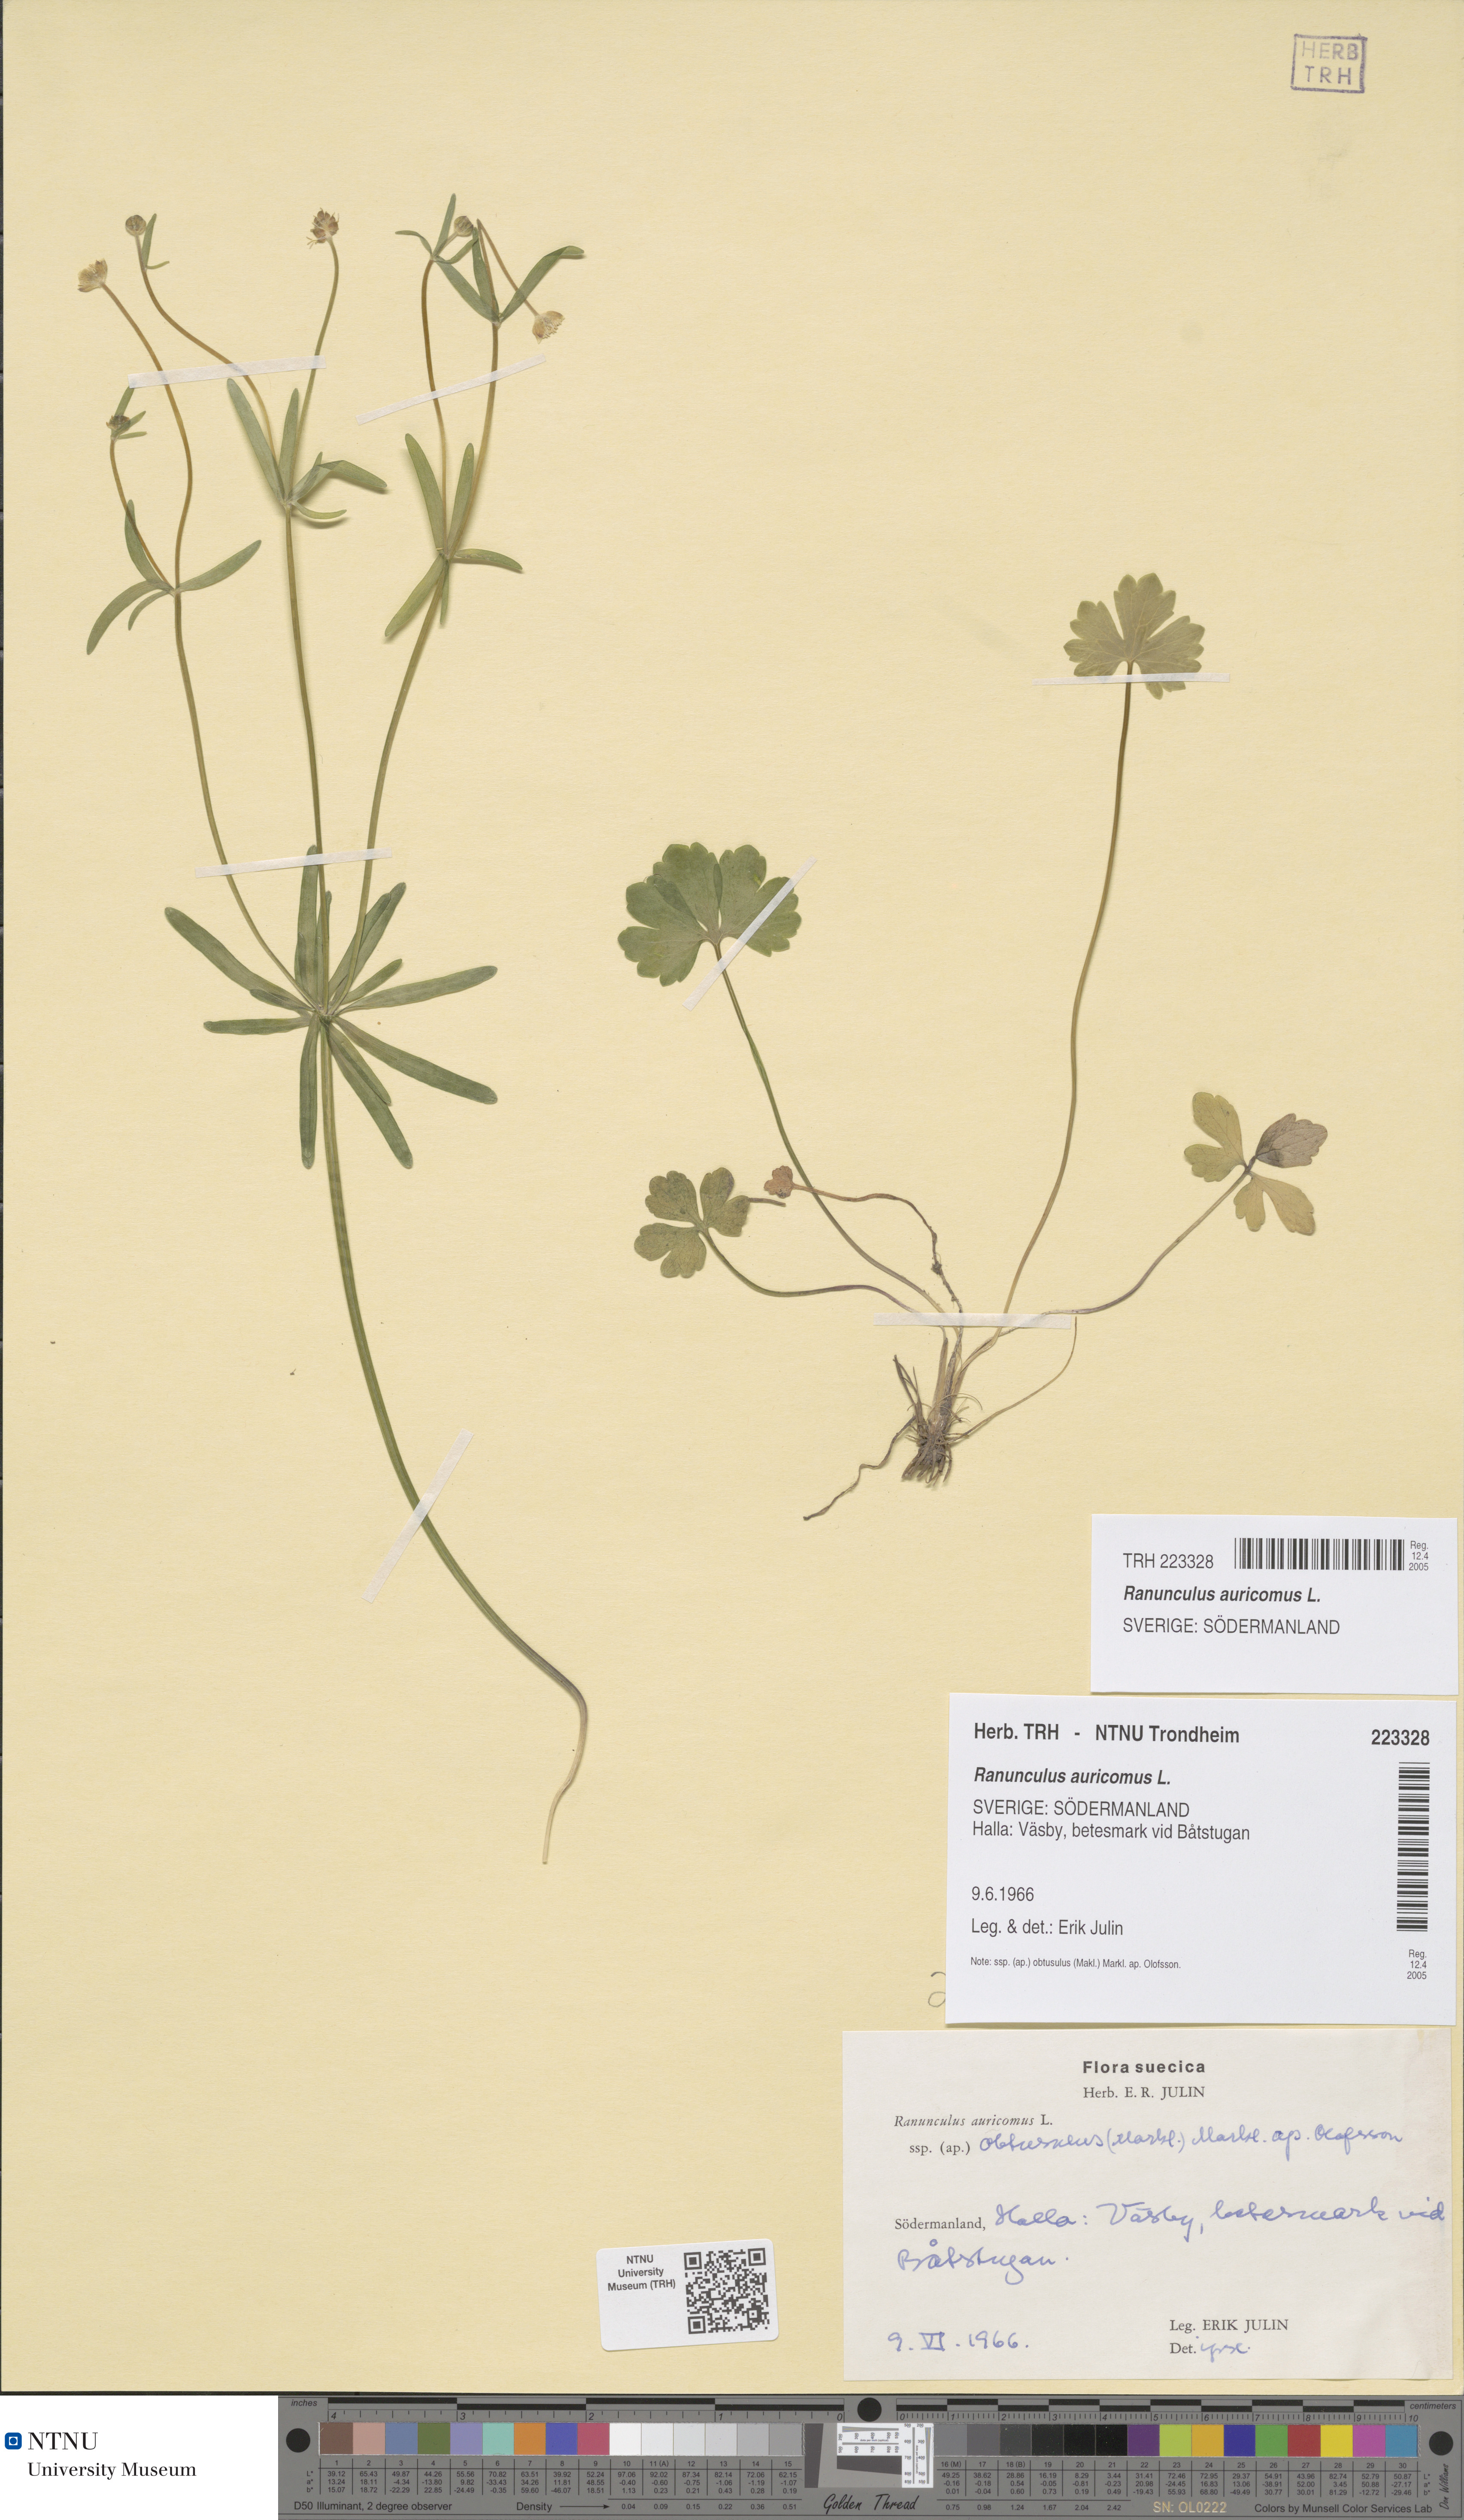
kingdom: Plantae
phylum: Tracheophyta
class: Magnoliopsida
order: Ranunculales
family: Ranunculaceae
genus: Ranunculus
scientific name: Ranunculus auricomus
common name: Goldilocks buttercup
